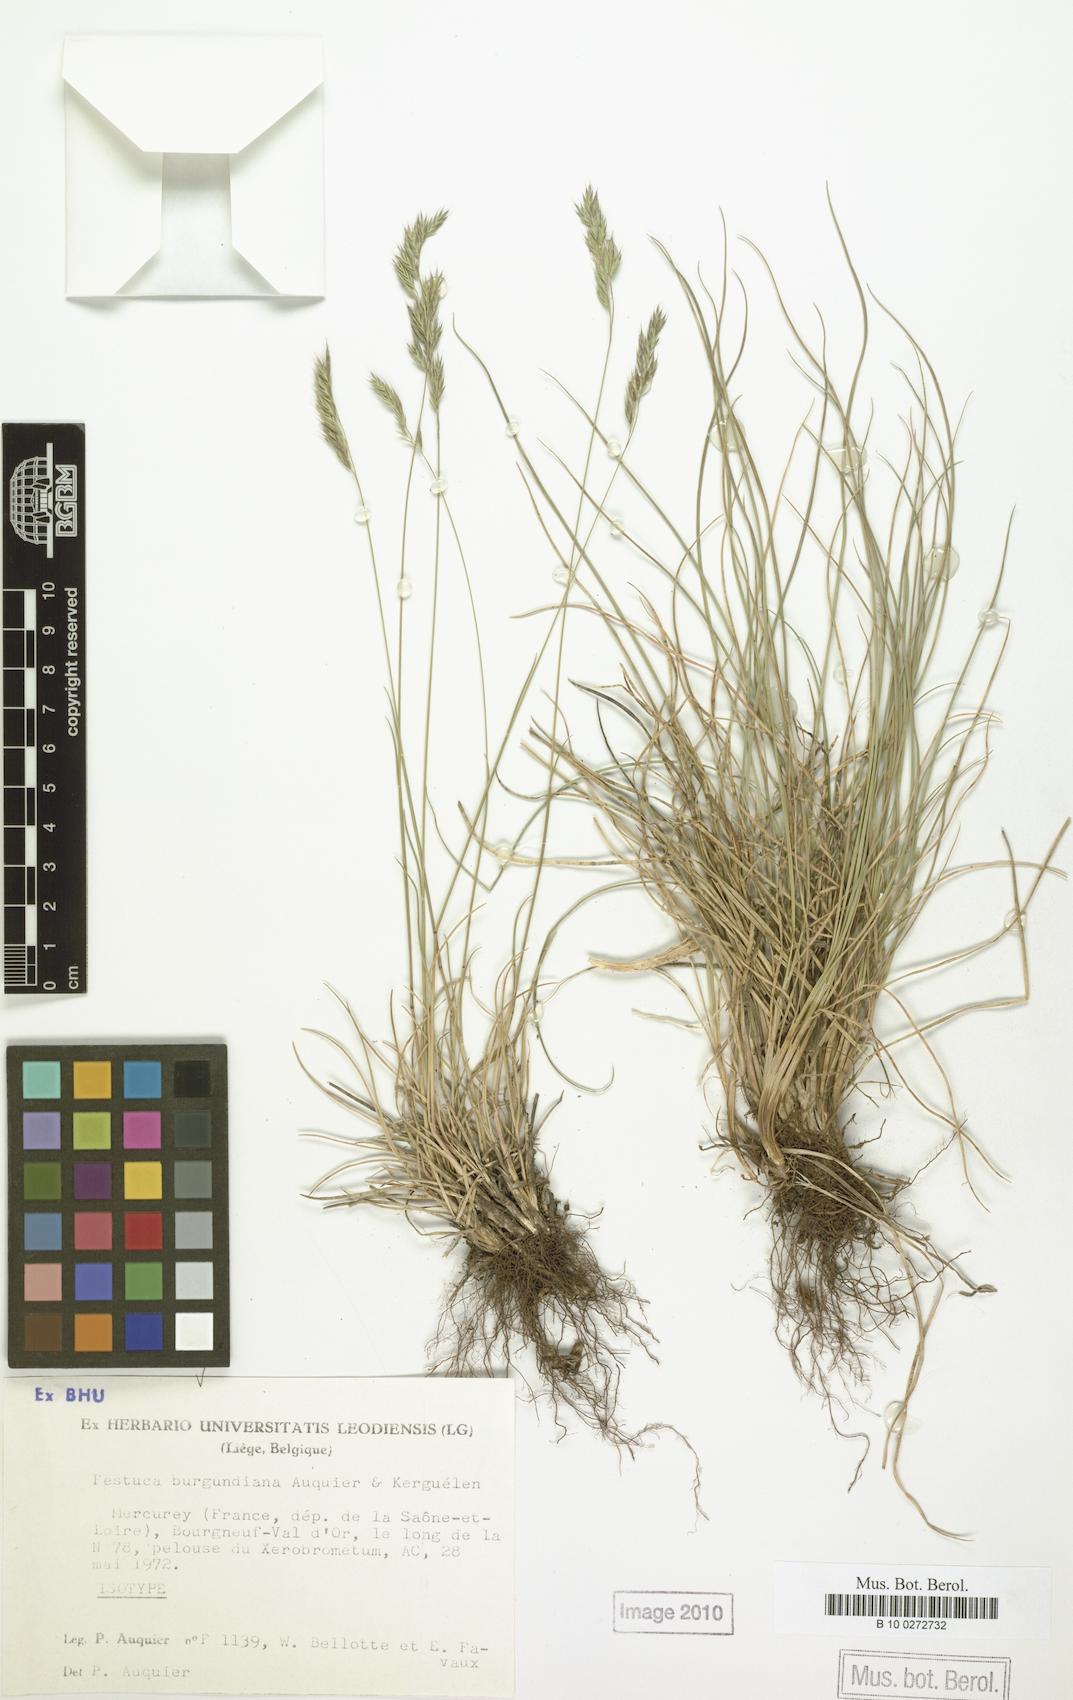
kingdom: Plantae
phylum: Tracheophyta
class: Liliopsida
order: Poales
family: Poaceae
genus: Festuca
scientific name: Festuca burgundiana
